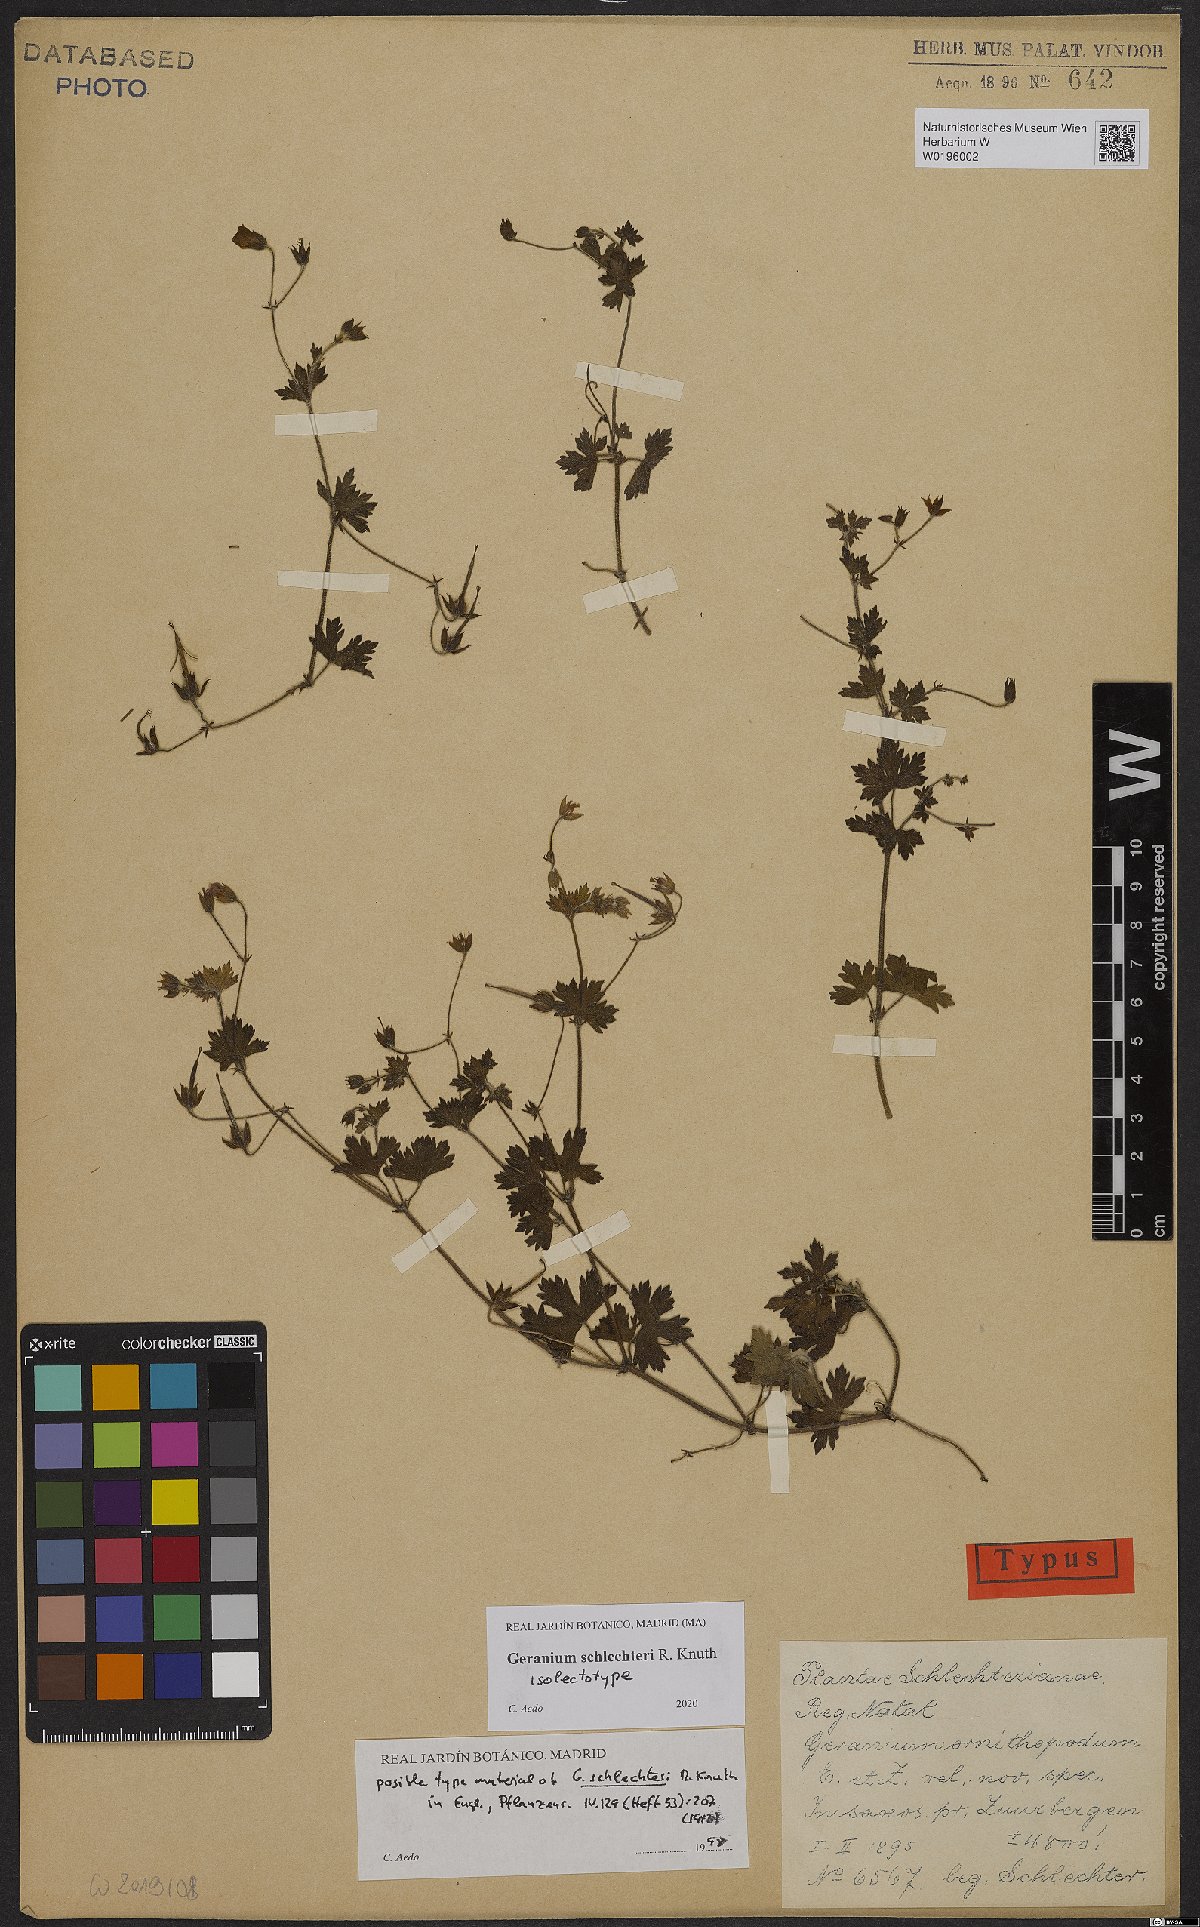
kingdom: Plantae
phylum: Tracheophyta
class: Magnoliopsida
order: Geraniales
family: Geraniaceae
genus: Geranium
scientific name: Geranium schlechteri
